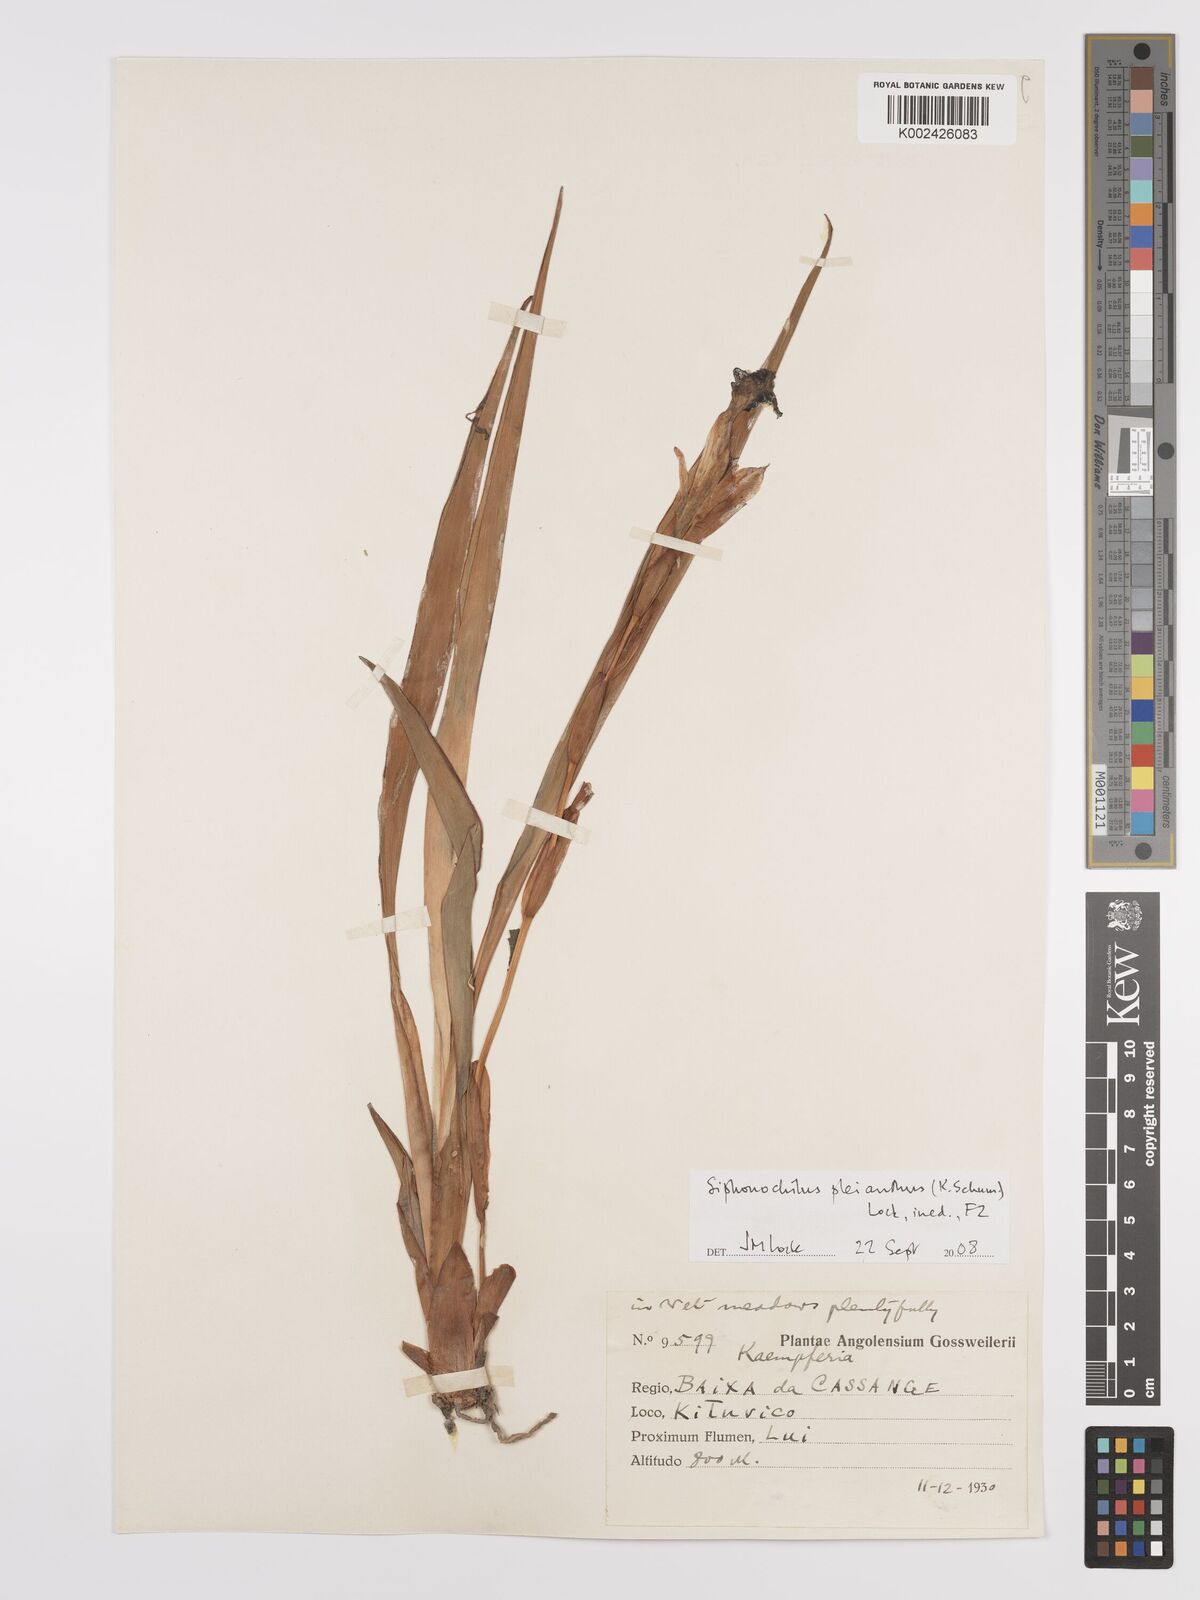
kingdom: Plantae
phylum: Tracheophyta
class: Liliopsida
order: Zingiberales
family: Zingiberaceae
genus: Siphonochilus
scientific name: Siphonochilus pleianthus
